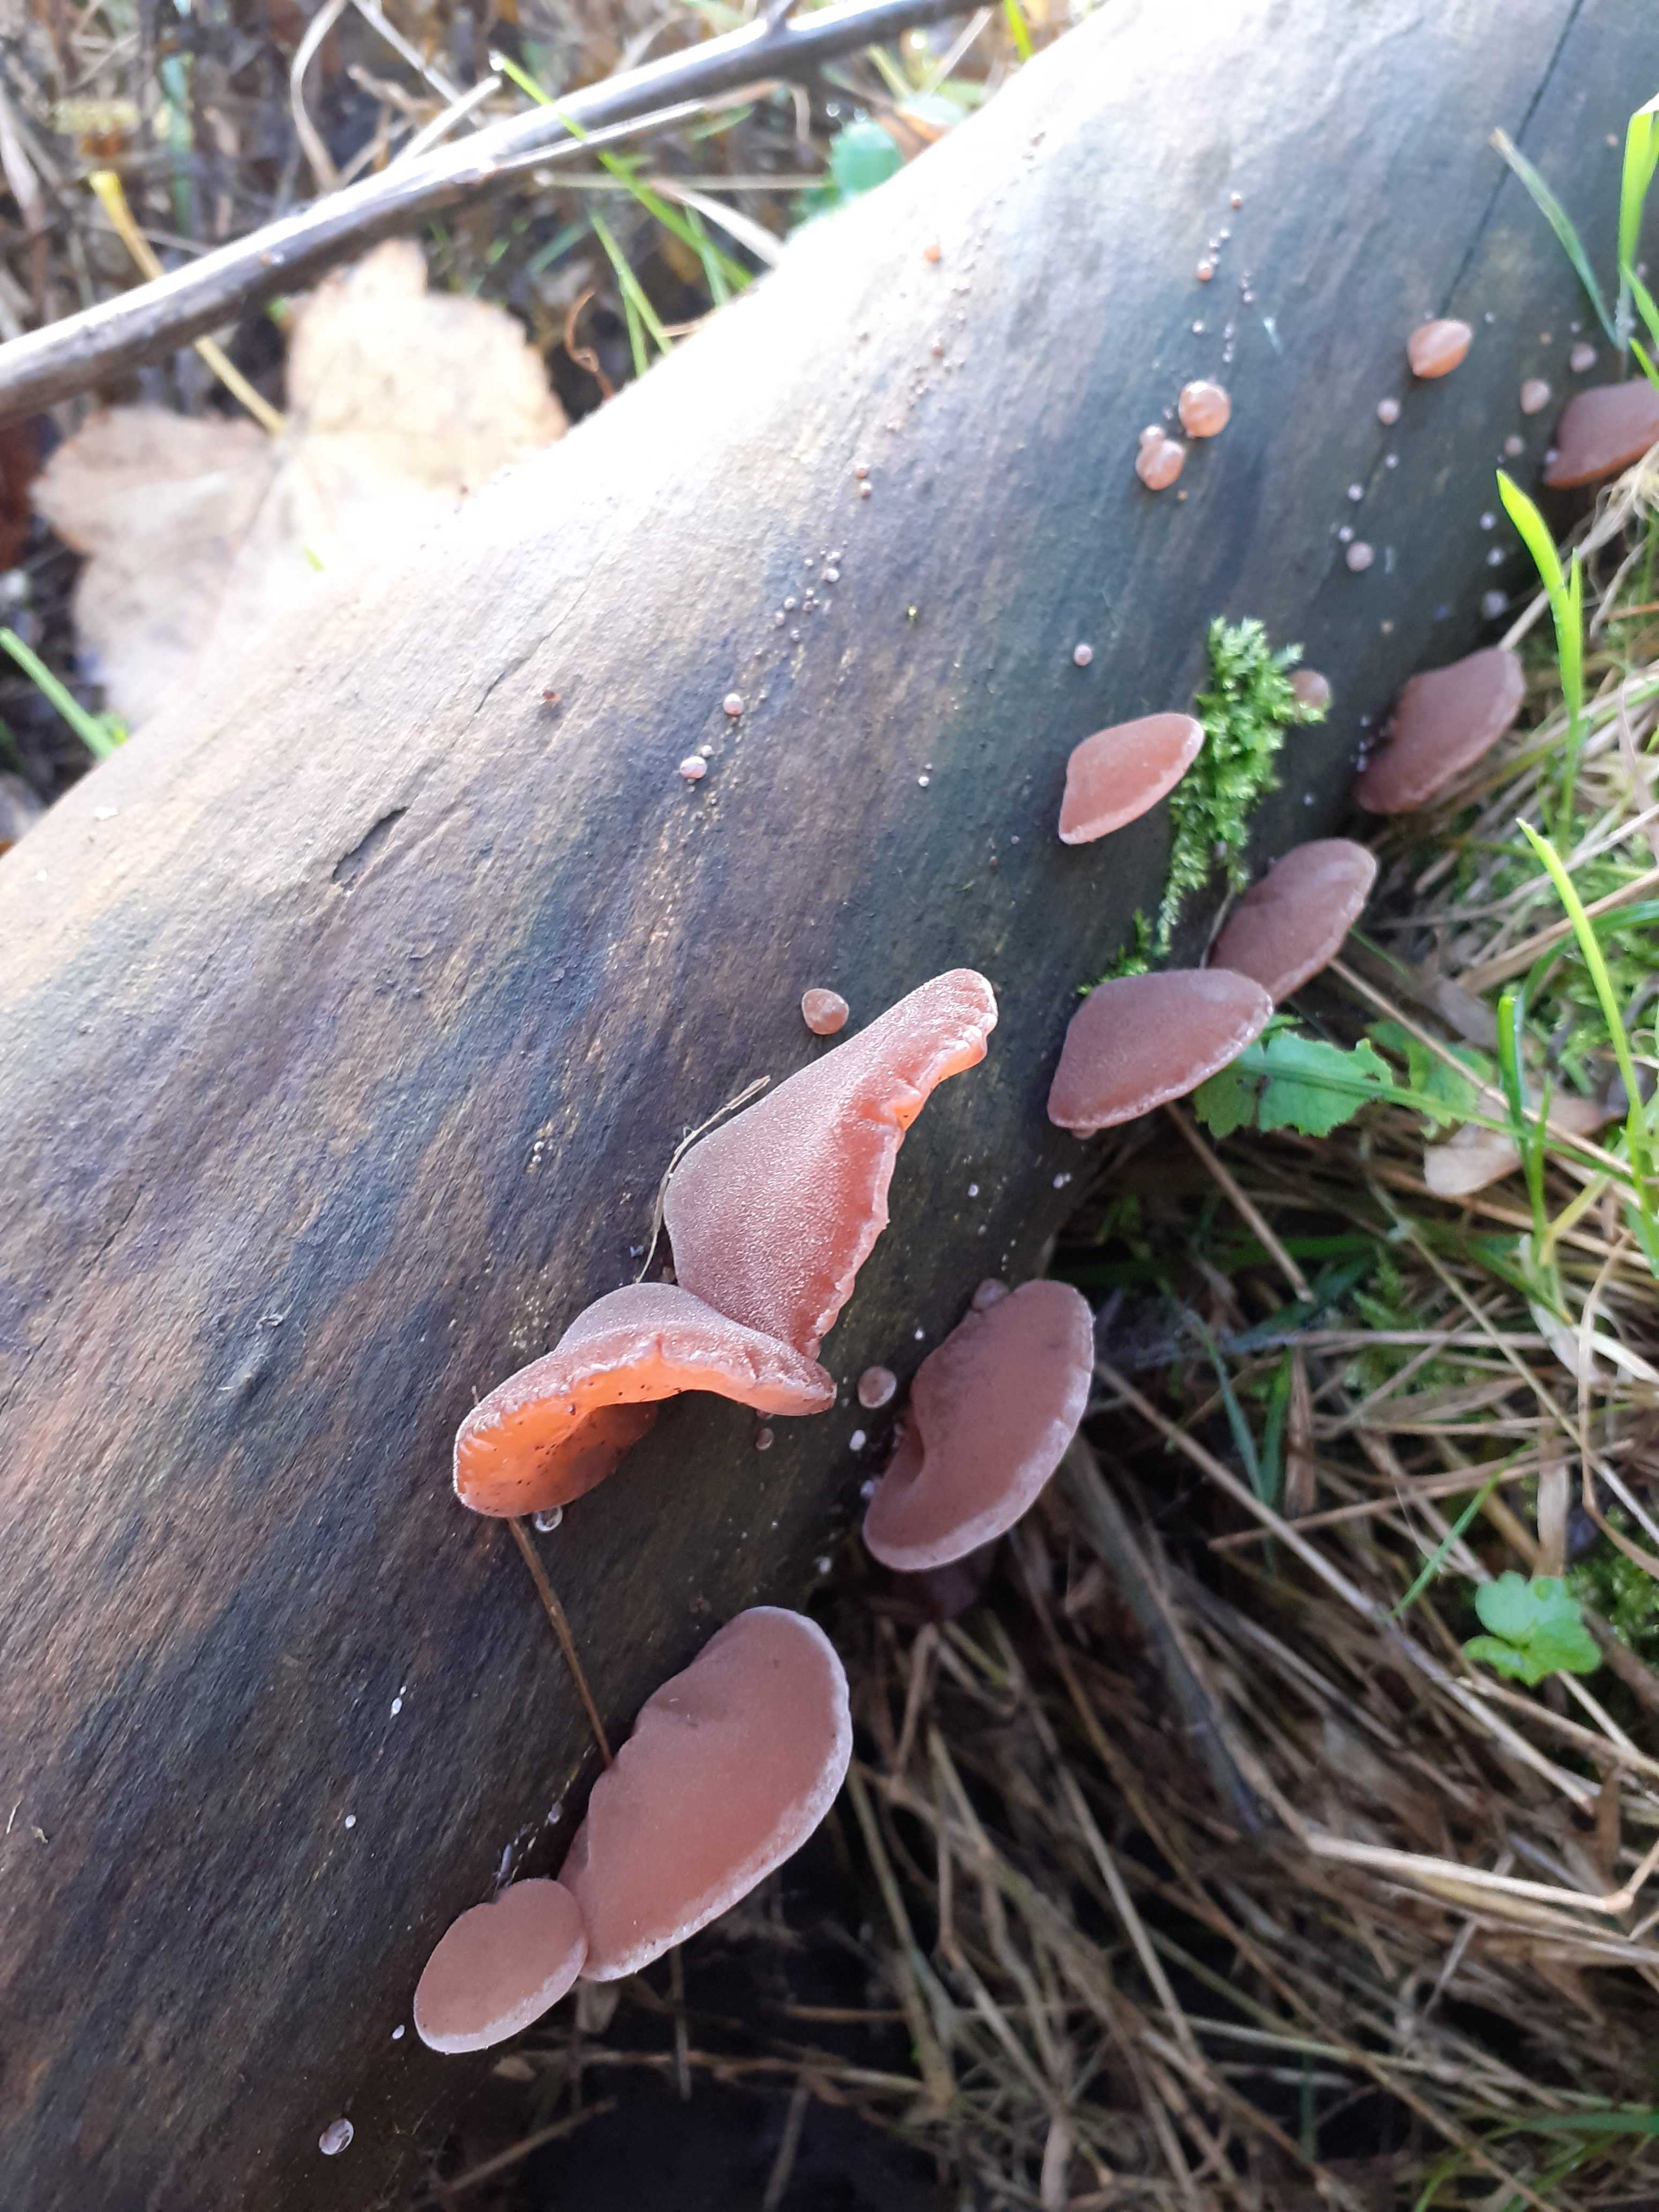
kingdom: Fungi
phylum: Basidiomycota
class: Agaricomycetes
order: Auriculariales
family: Auriculariaceae
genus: Auricularia
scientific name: Auricularia auricula-judae
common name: almindelig judasøre
